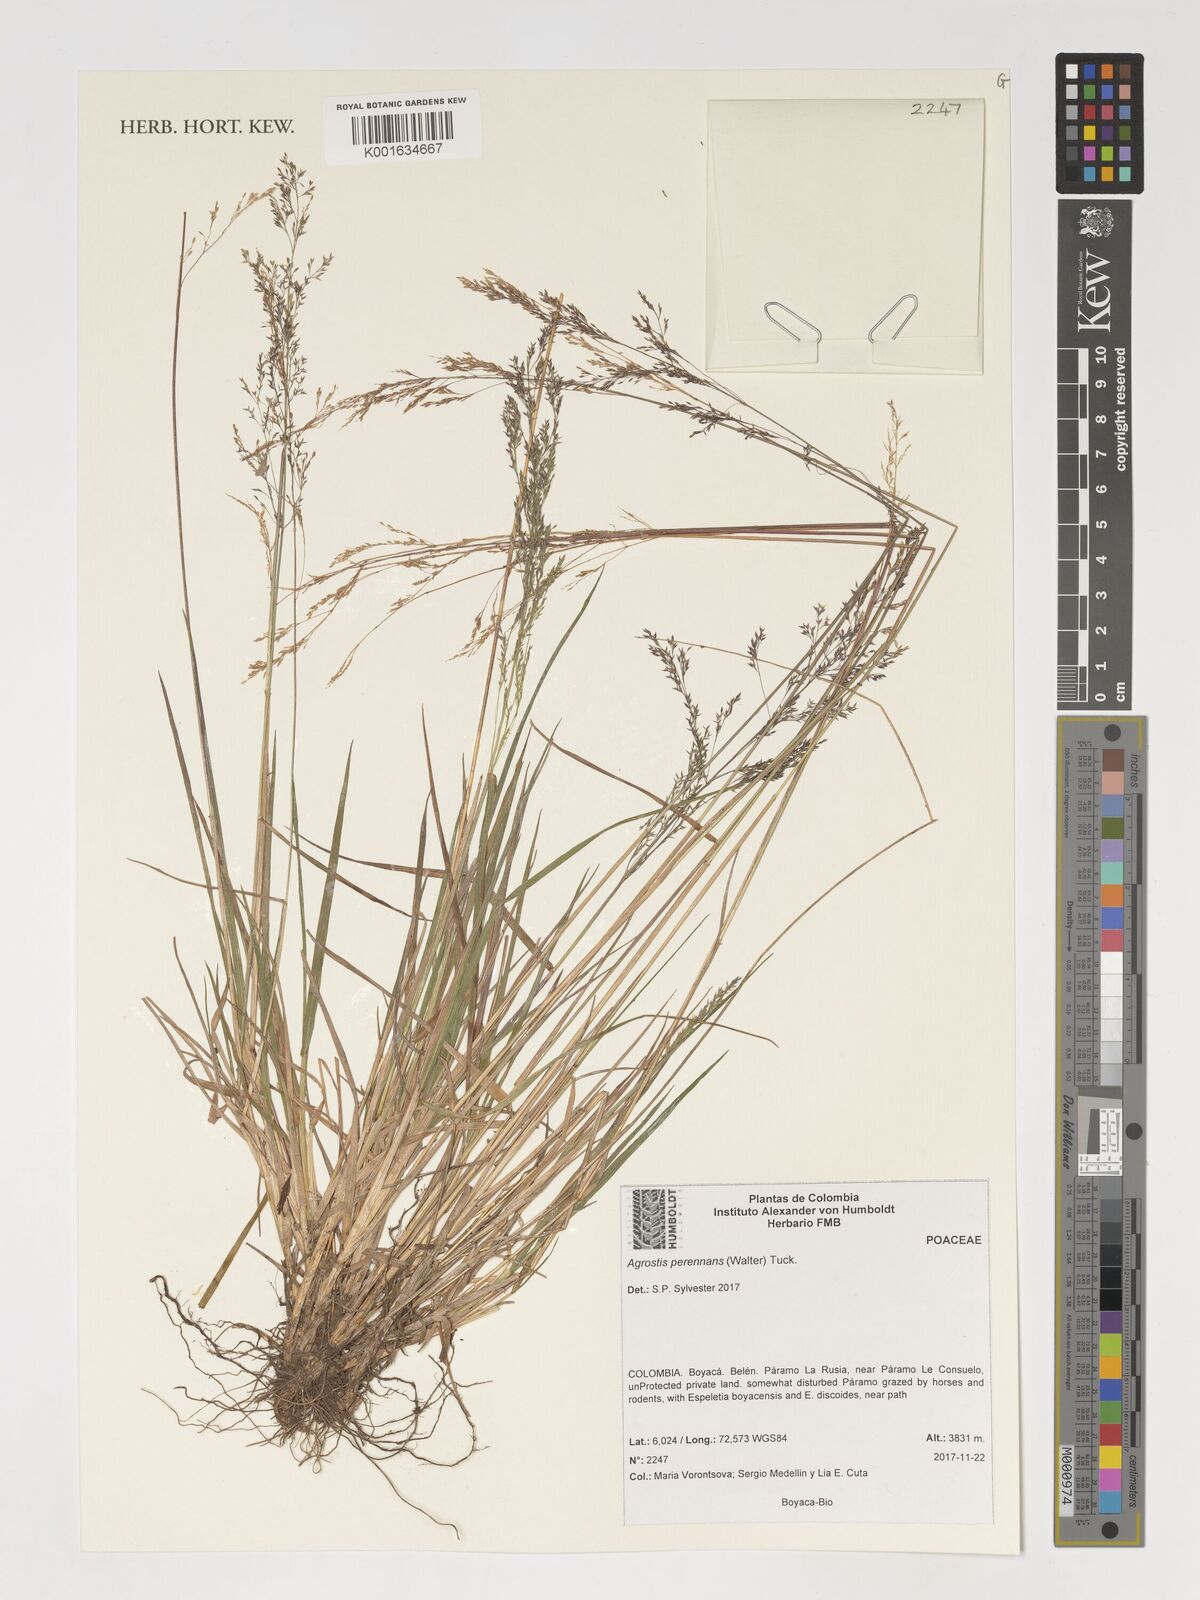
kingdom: Plantae
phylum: Tracheophyta
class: Liliopsida
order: Poales
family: Poaceae
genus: Agrostis
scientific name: Agrostis perennans
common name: Autumn bent
